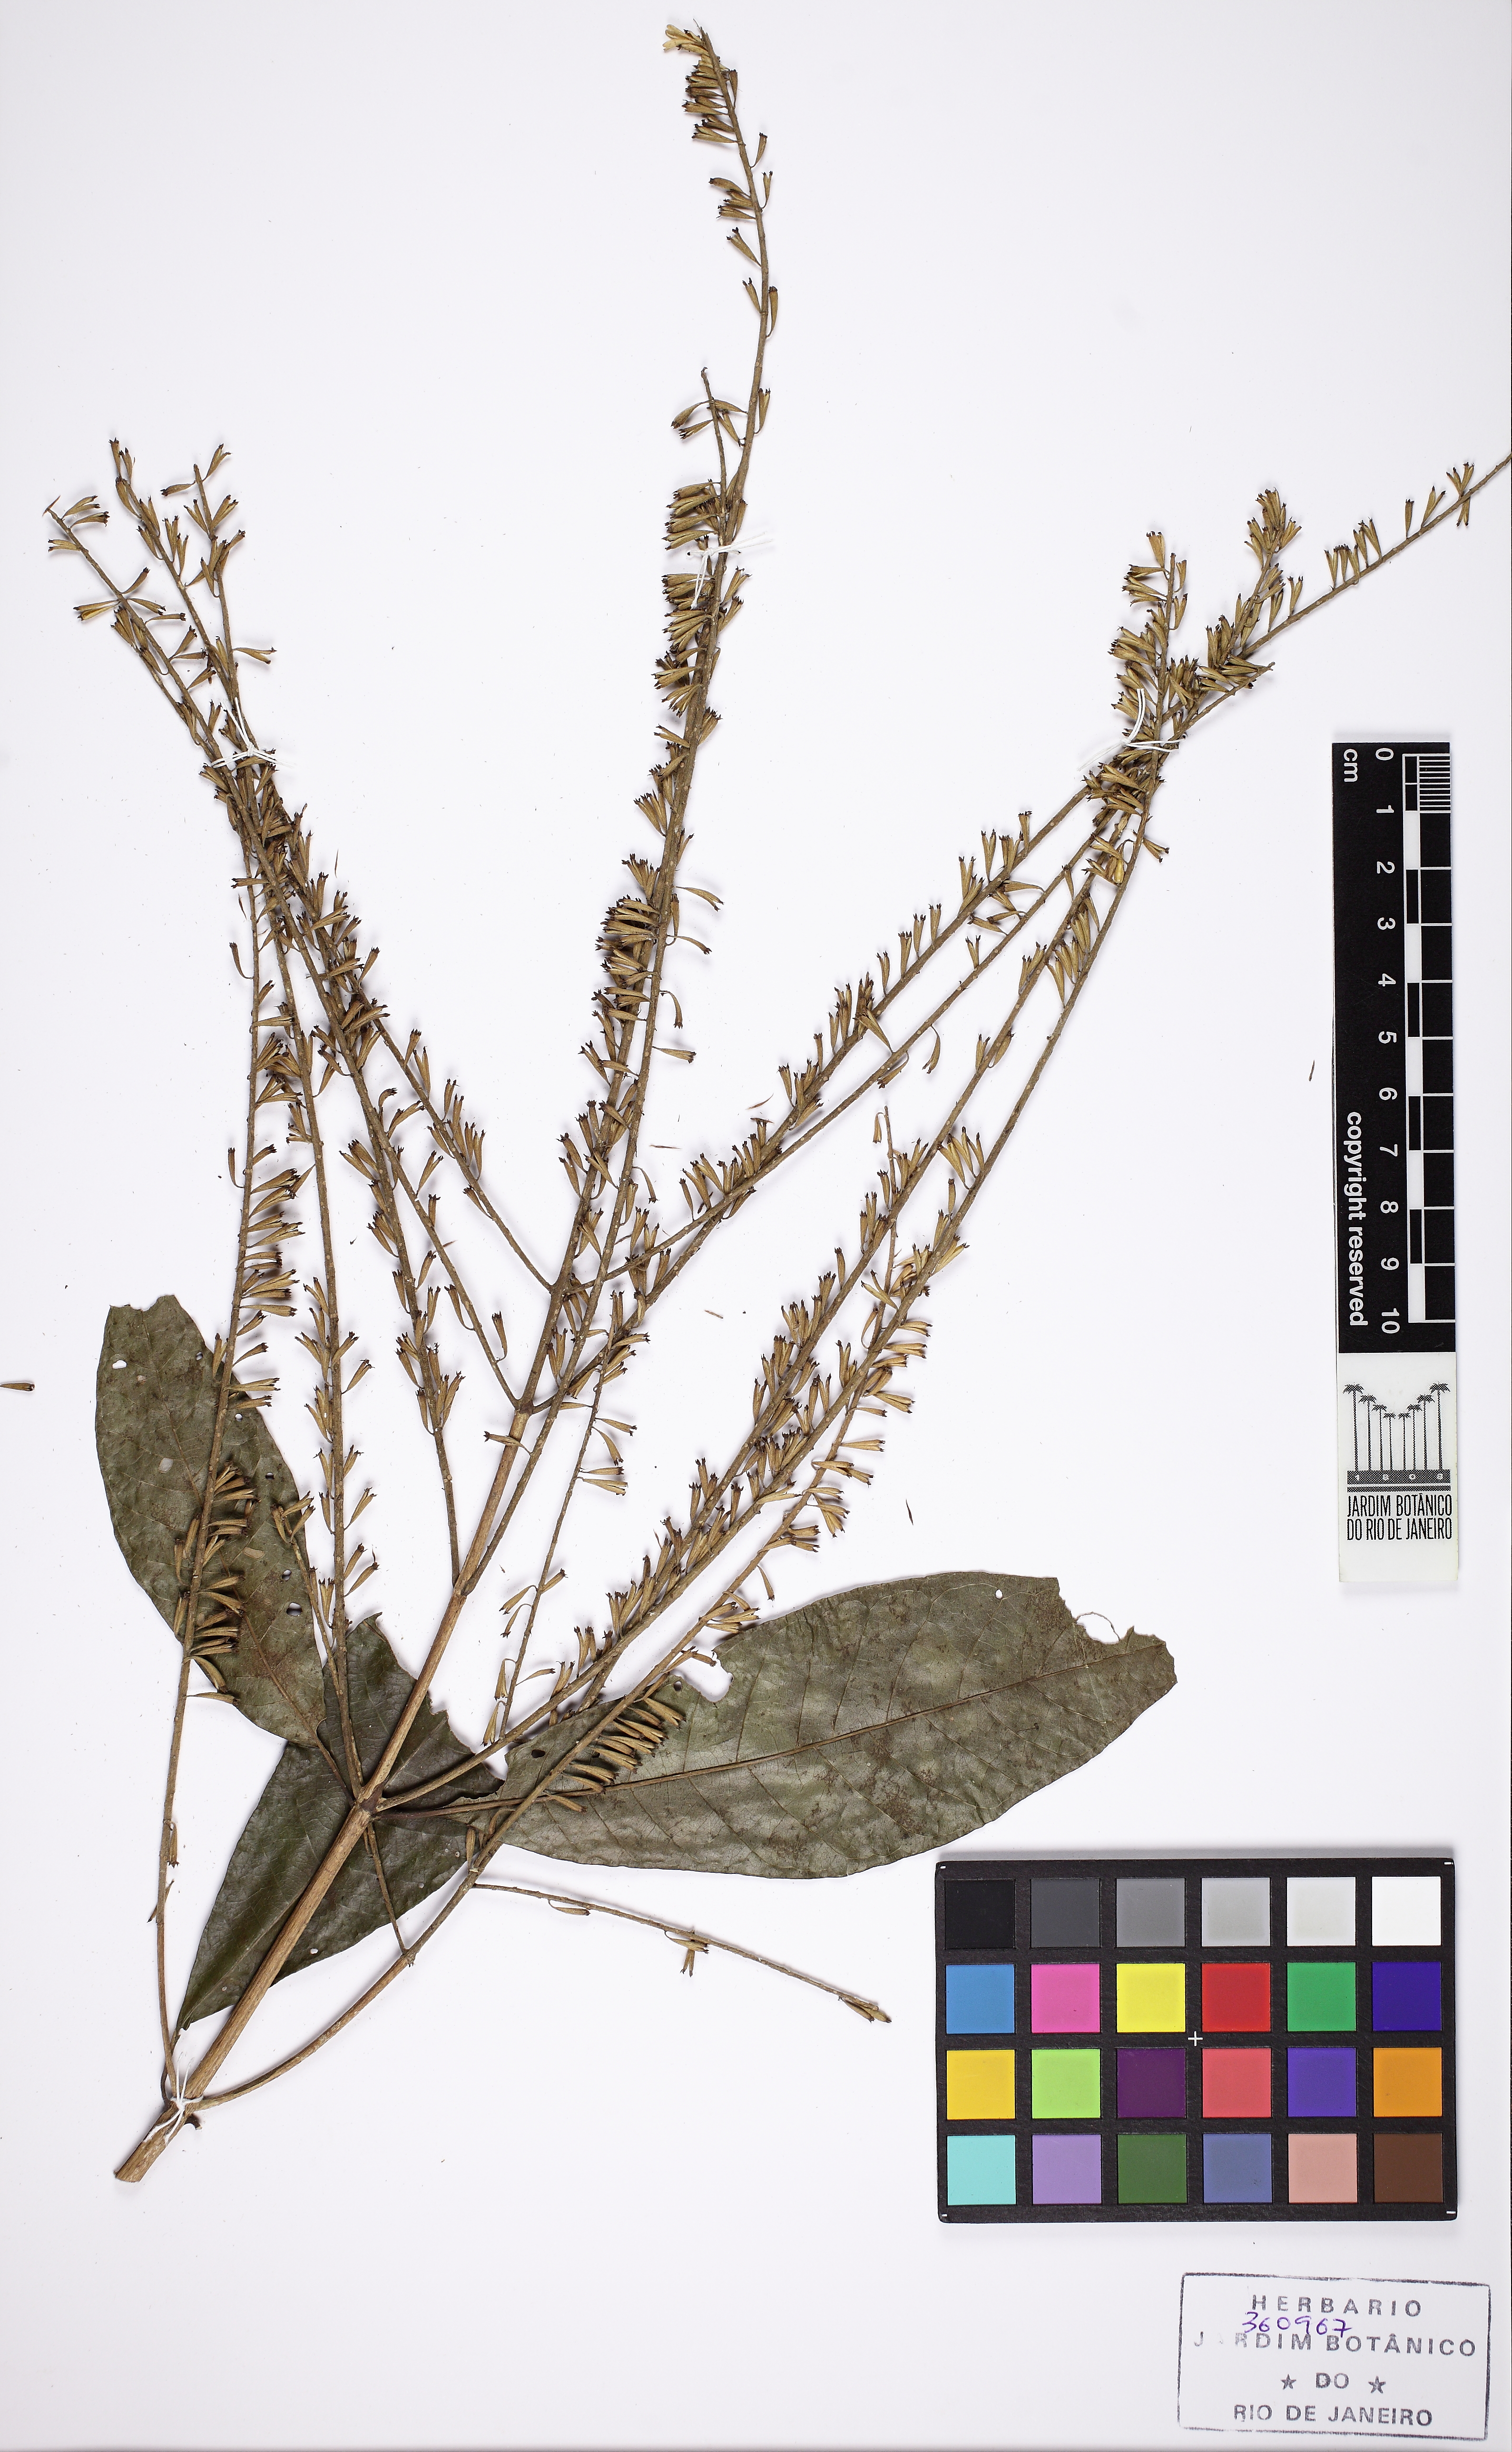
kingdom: Plantae
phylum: Tracheophyta
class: Magnoliopsida
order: Gentianales
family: Rubiaceae
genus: Alseis
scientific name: Alseis smithii
